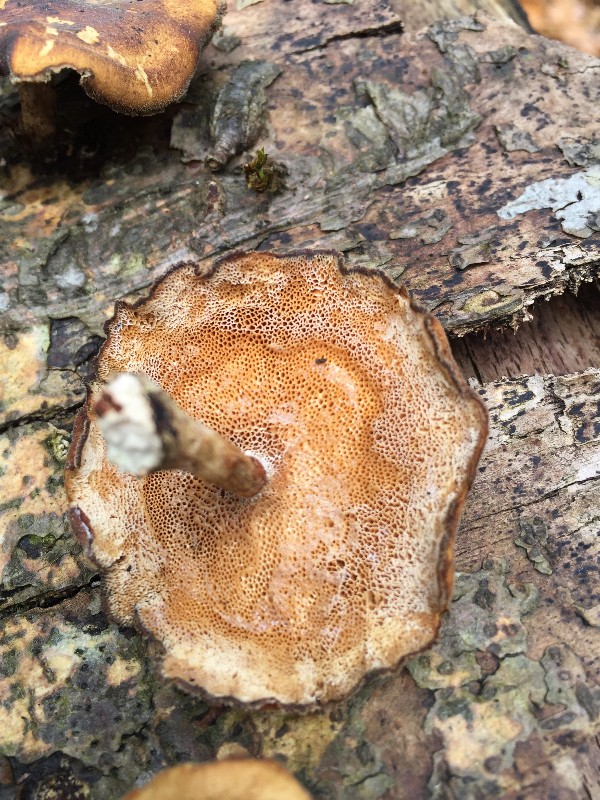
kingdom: Fungi
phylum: Basidiomycota
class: Agaricomycetes
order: Polyporales
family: Polyporaceae
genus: Cerioporus
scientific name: Cerioporus varius
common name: foranderlig stilkporesvamp
